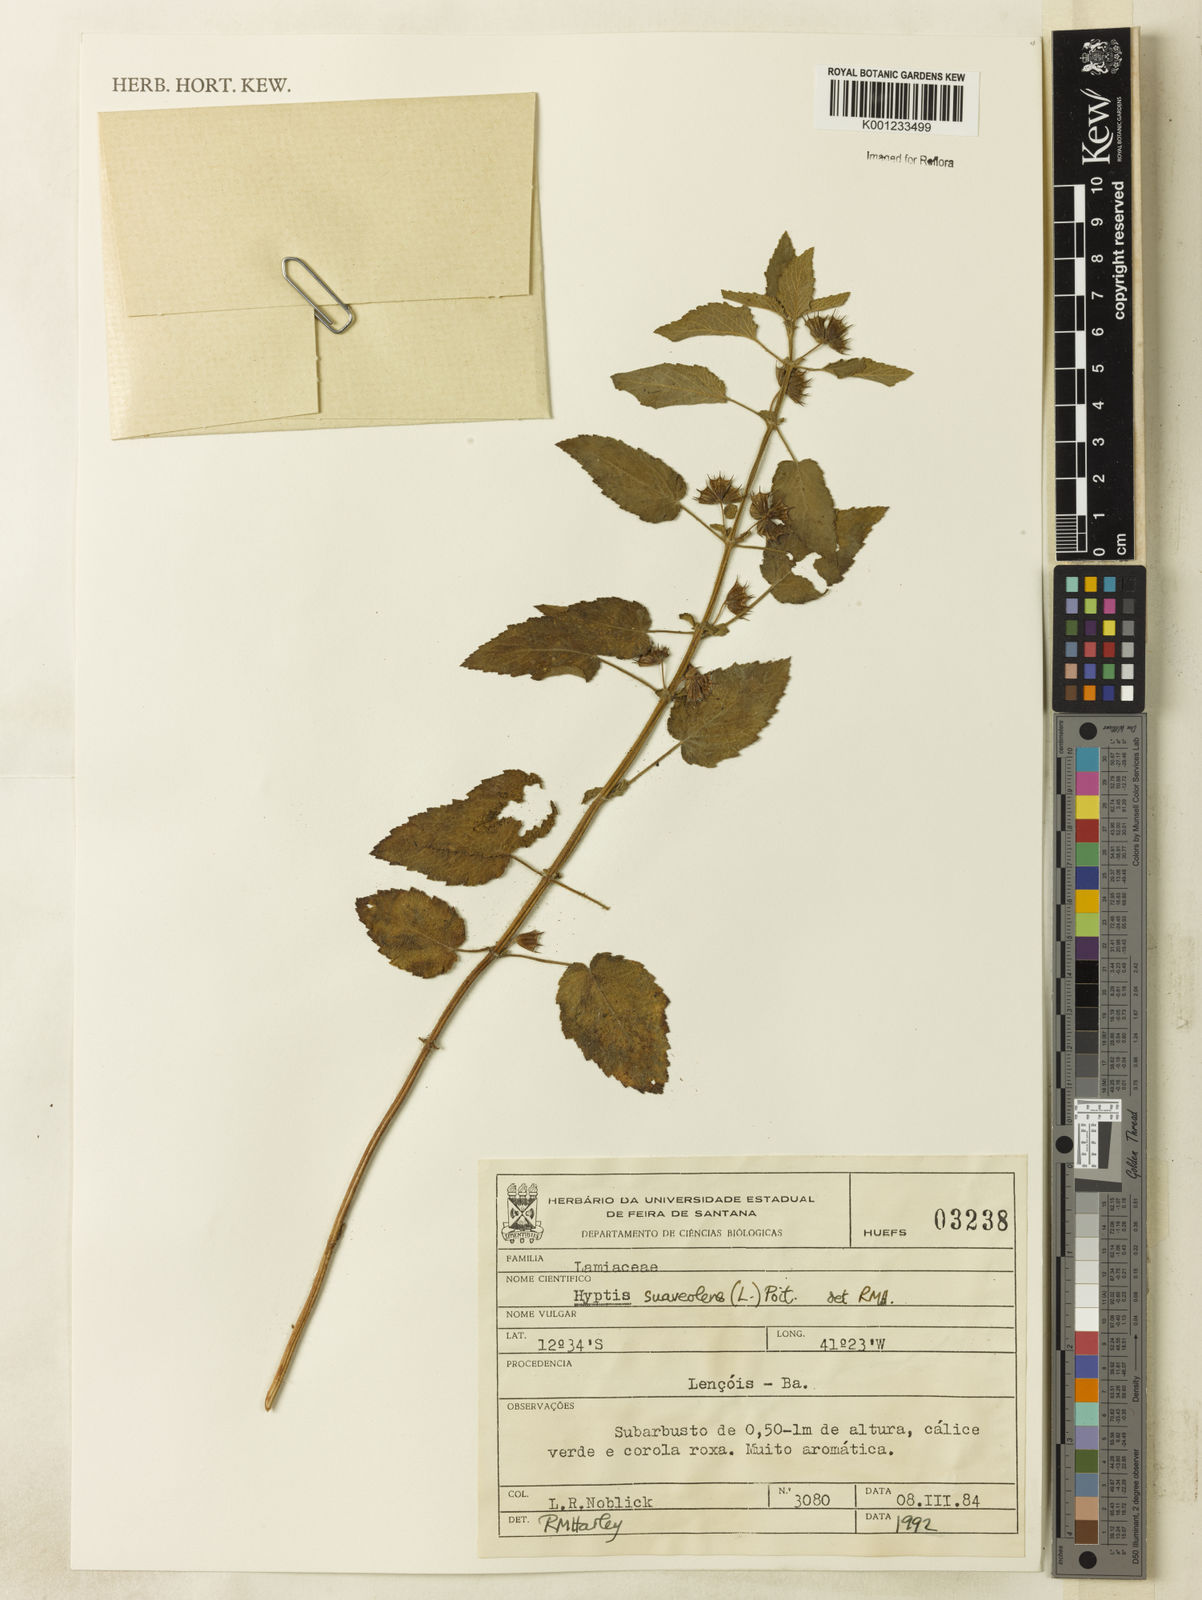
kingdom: Plantae
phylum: Tracheophyta
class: Magnoliopsida
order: Lamiales
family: Lamiaceae
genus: Mesosphaerum
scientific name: Mesosphaerum suaveolens
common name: Pignut
